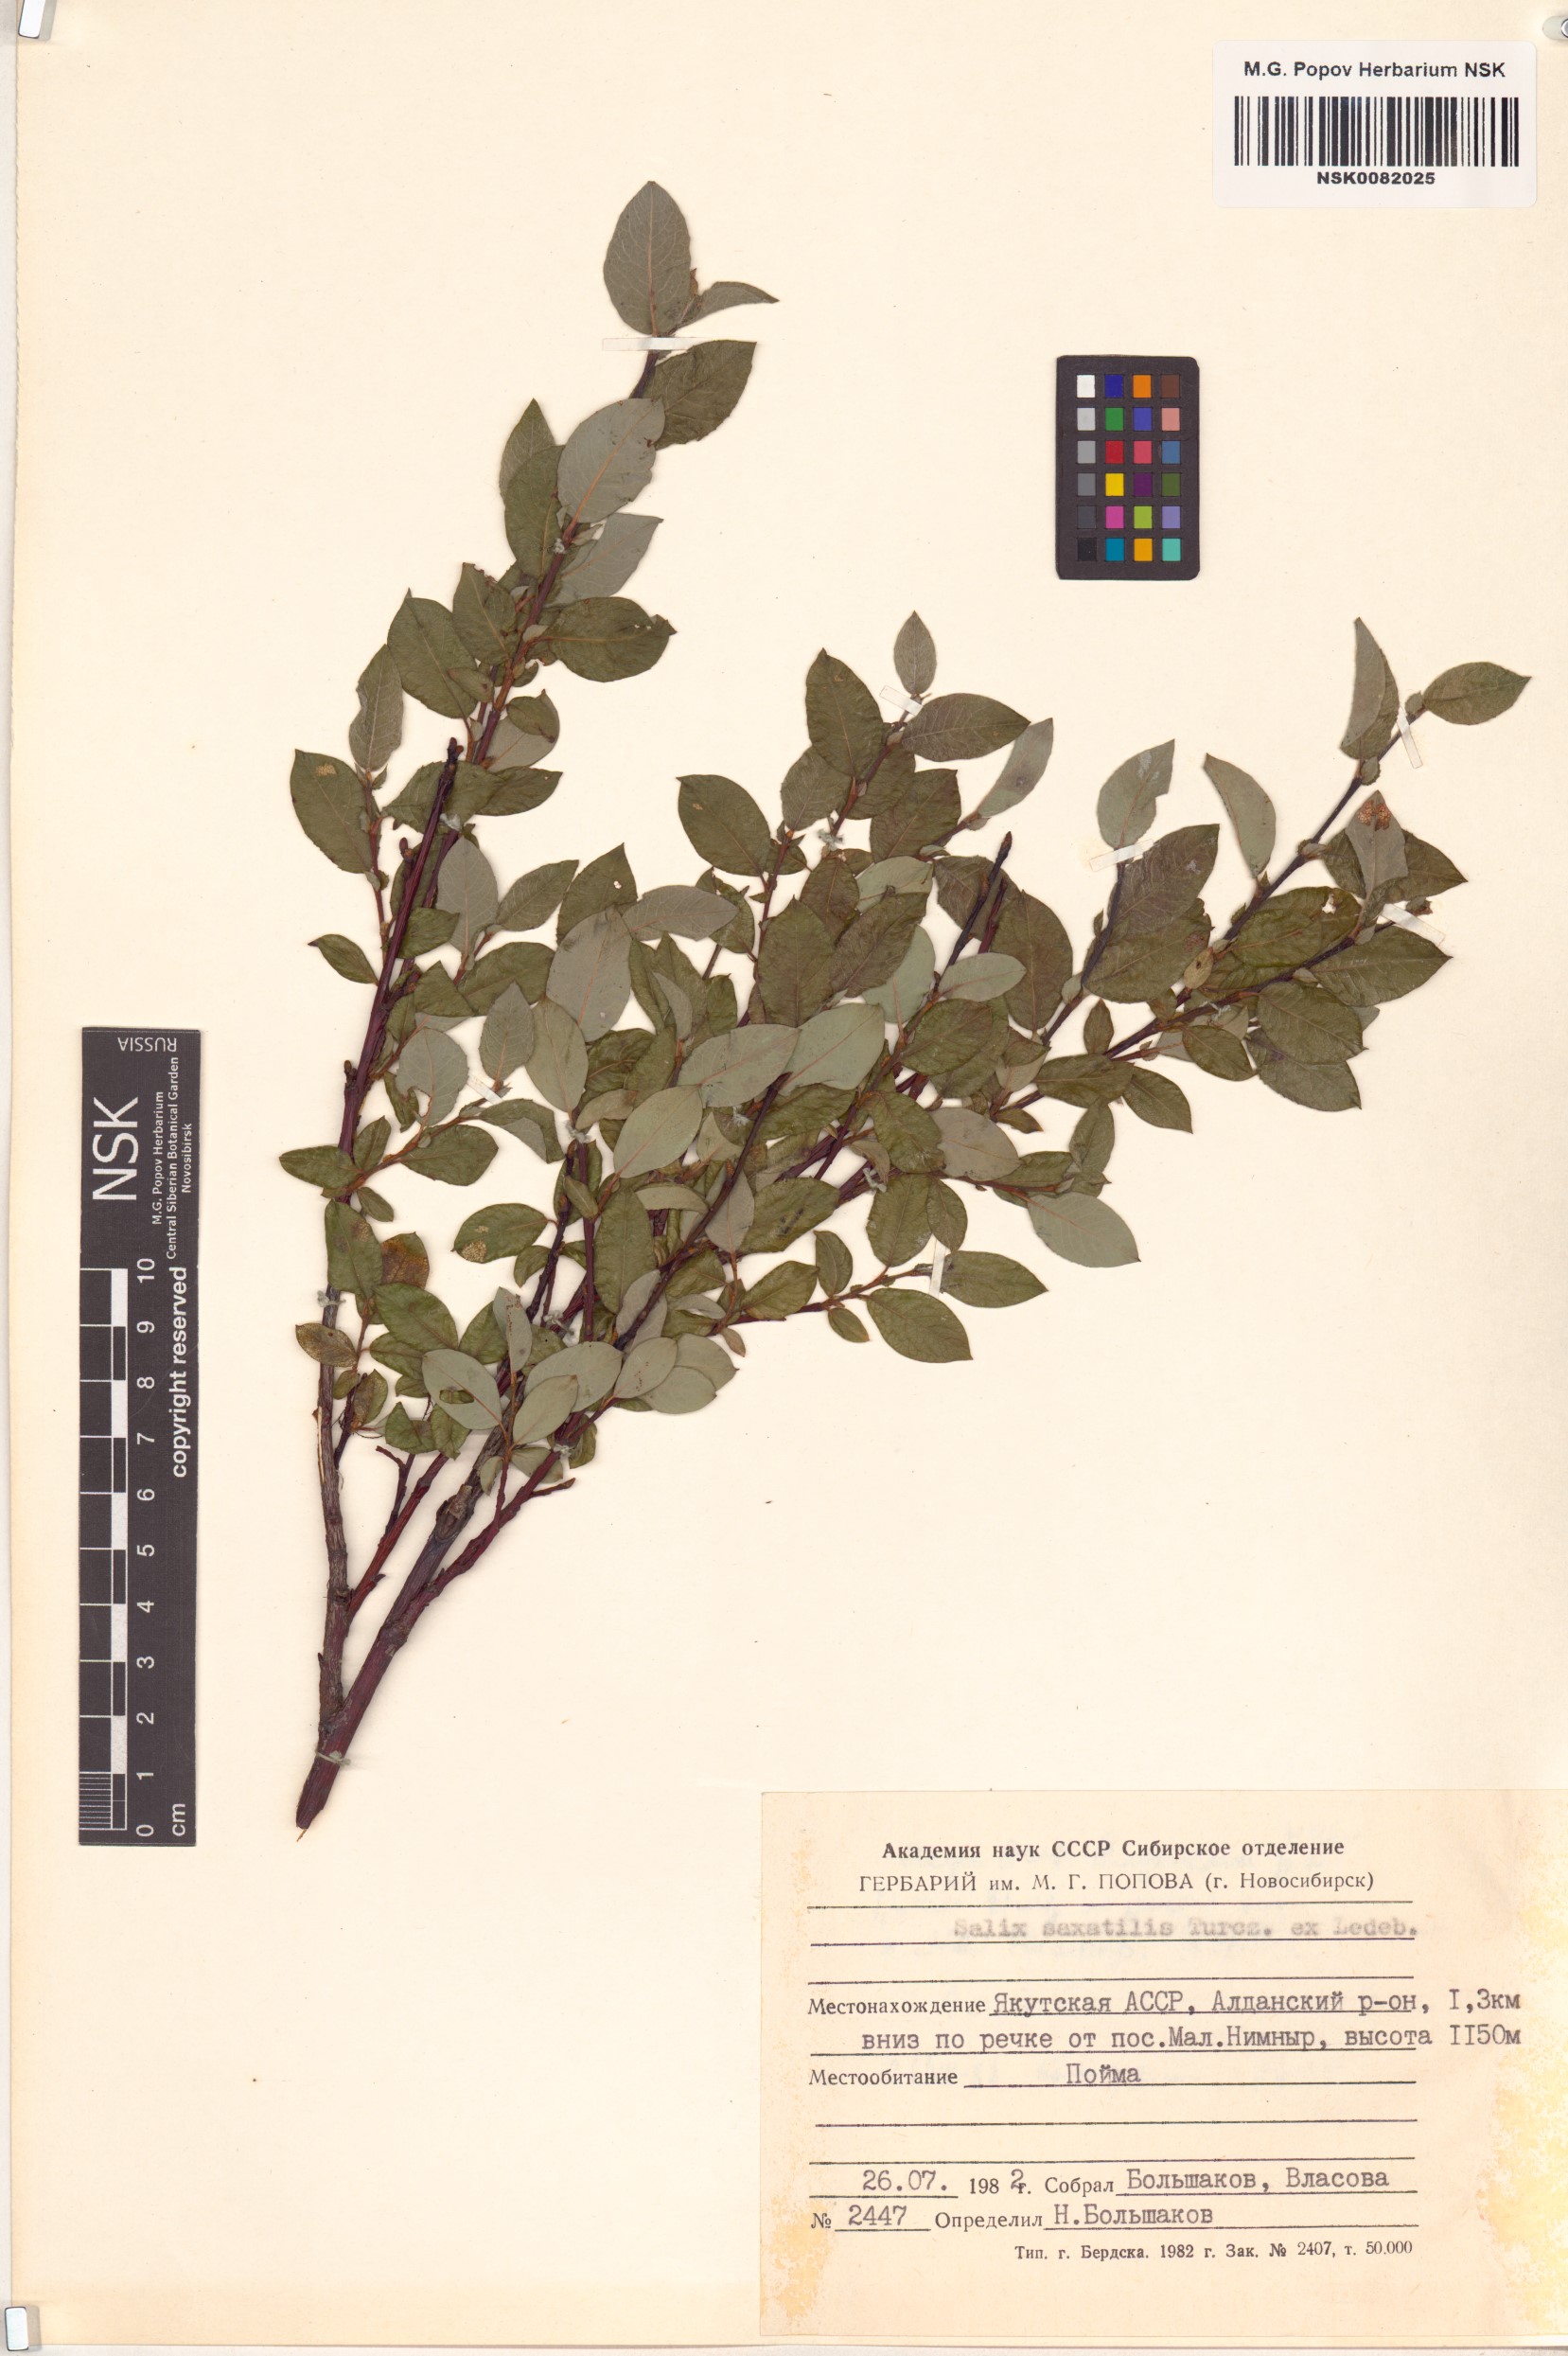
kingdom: Plantae
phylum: Tracheophyta
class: Magnoliopsida
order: Malpighiales
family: Salicaceae
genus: Salix
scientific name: Salix saxatilis
